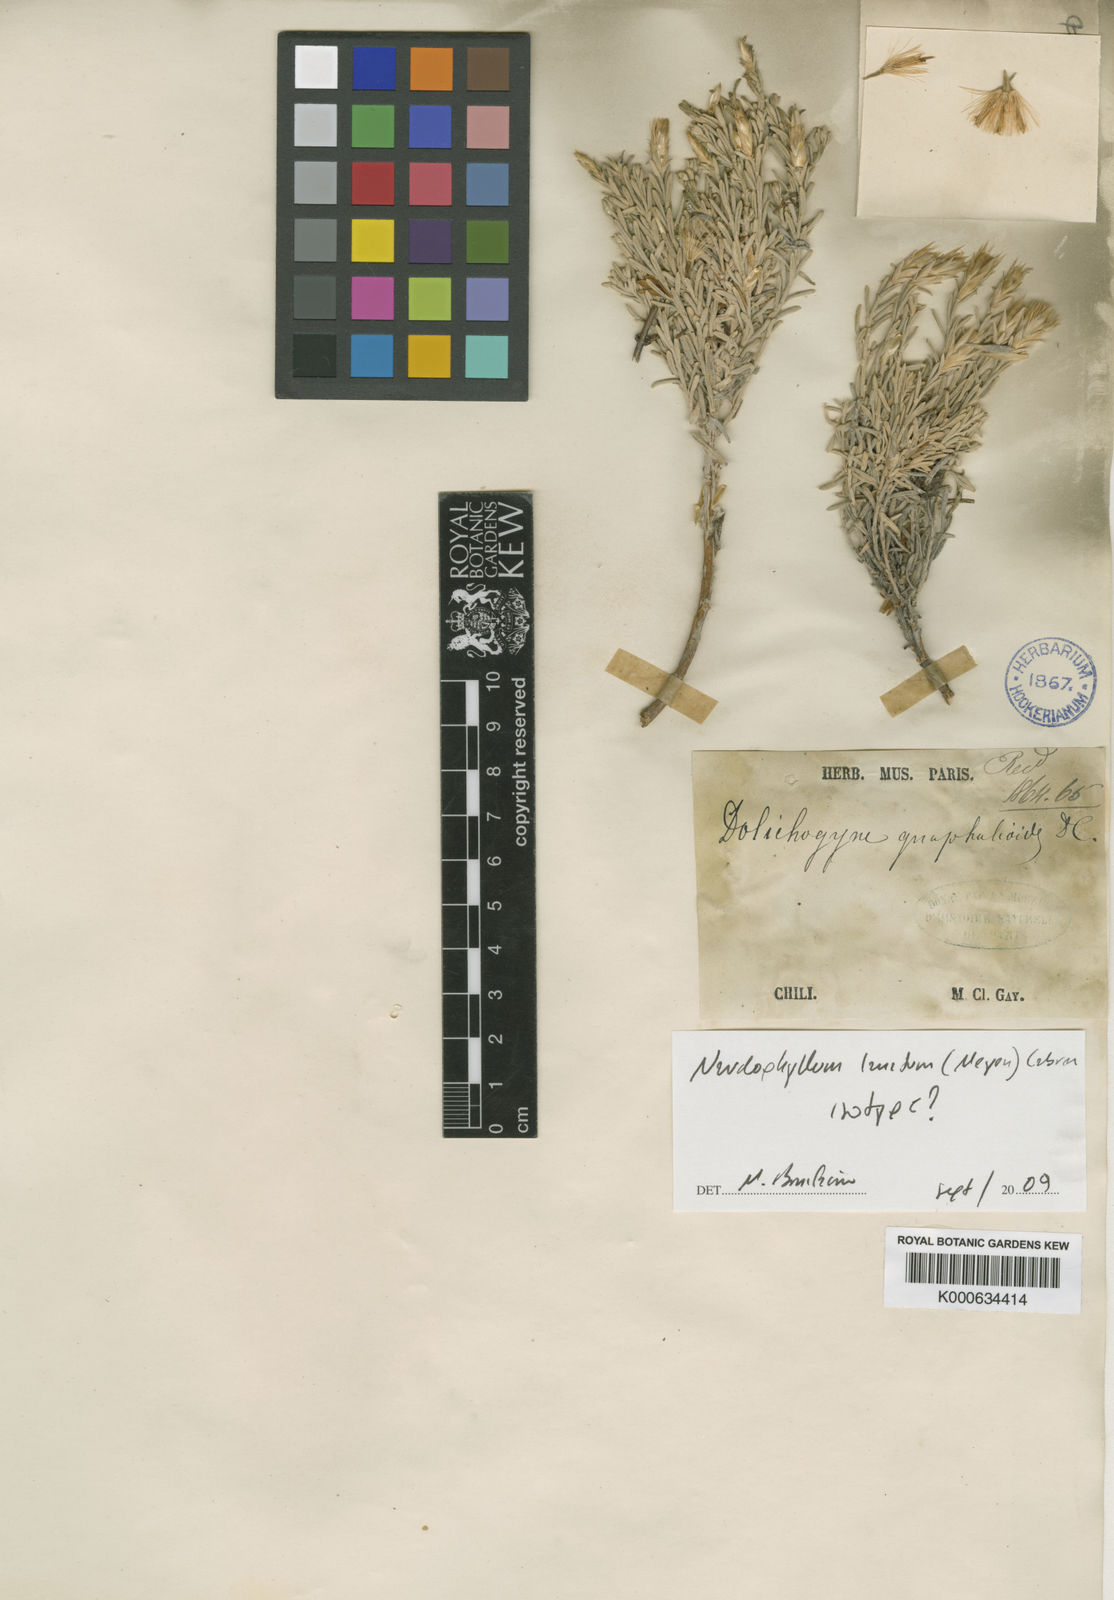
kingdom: Plantae
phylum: Tracheophyta
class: Magnoliopsida
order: Asterales
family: Asteraceae
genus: Nardophyllum
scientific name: Nardophyllum lanatum
